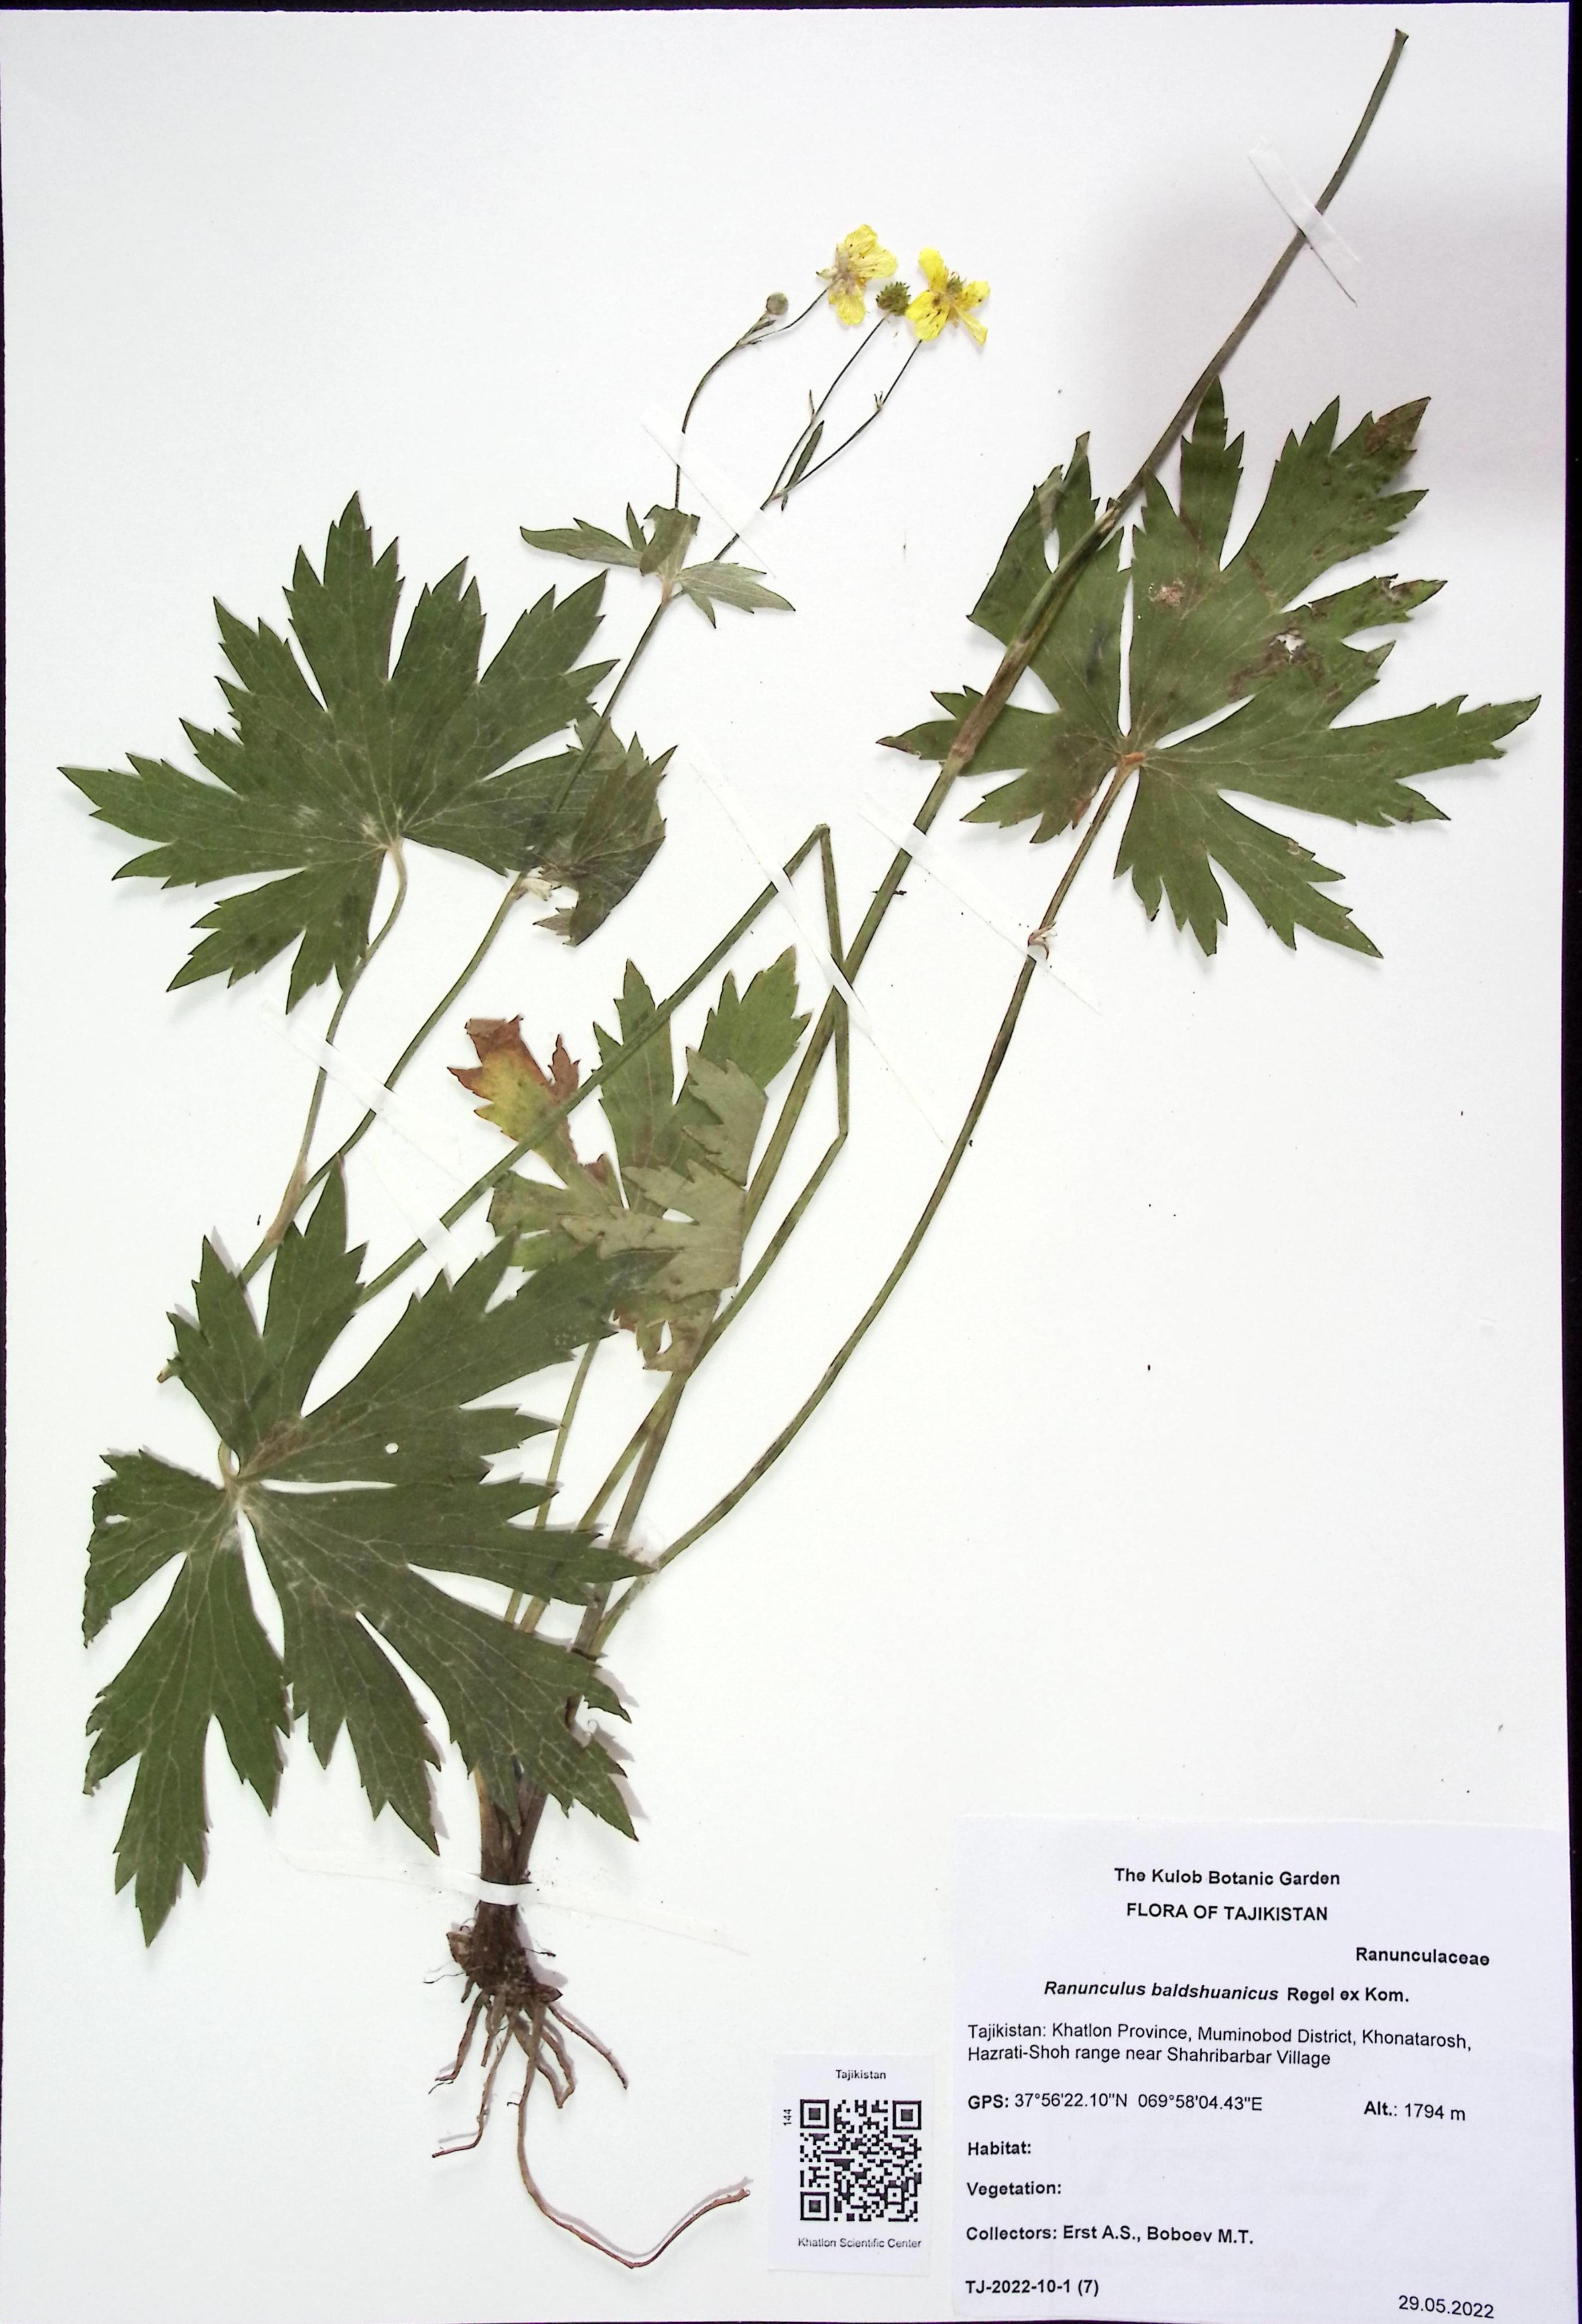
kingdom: Plantae
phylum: Tracheophyta
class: Magnoliopsida
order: Ranunculales
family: Ranunculaceae
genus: Ranunculus
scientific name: Ranunculus baldshuanicus
